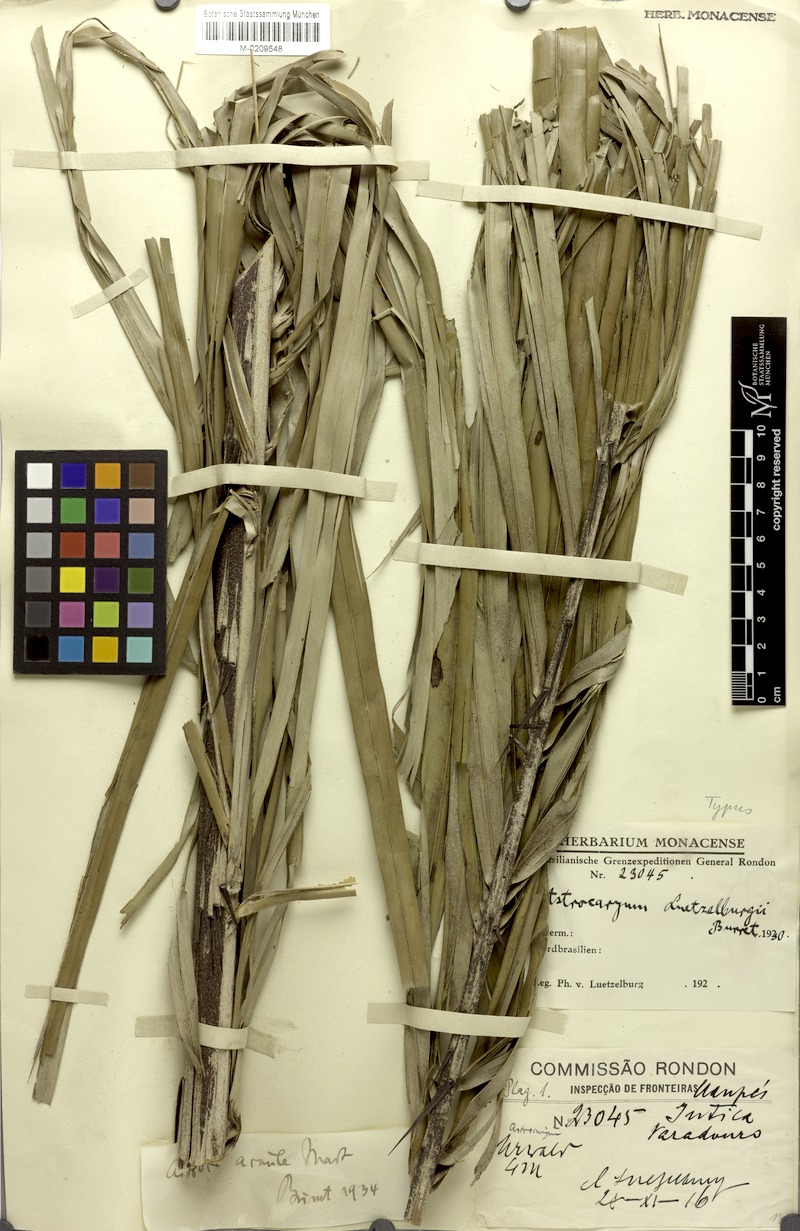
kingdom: Plantae
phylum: Tracheophyta
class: Liliopsida
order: Arecales
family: Arecaceae
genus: Astrocaryum
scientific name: Astrocaryum acaule
